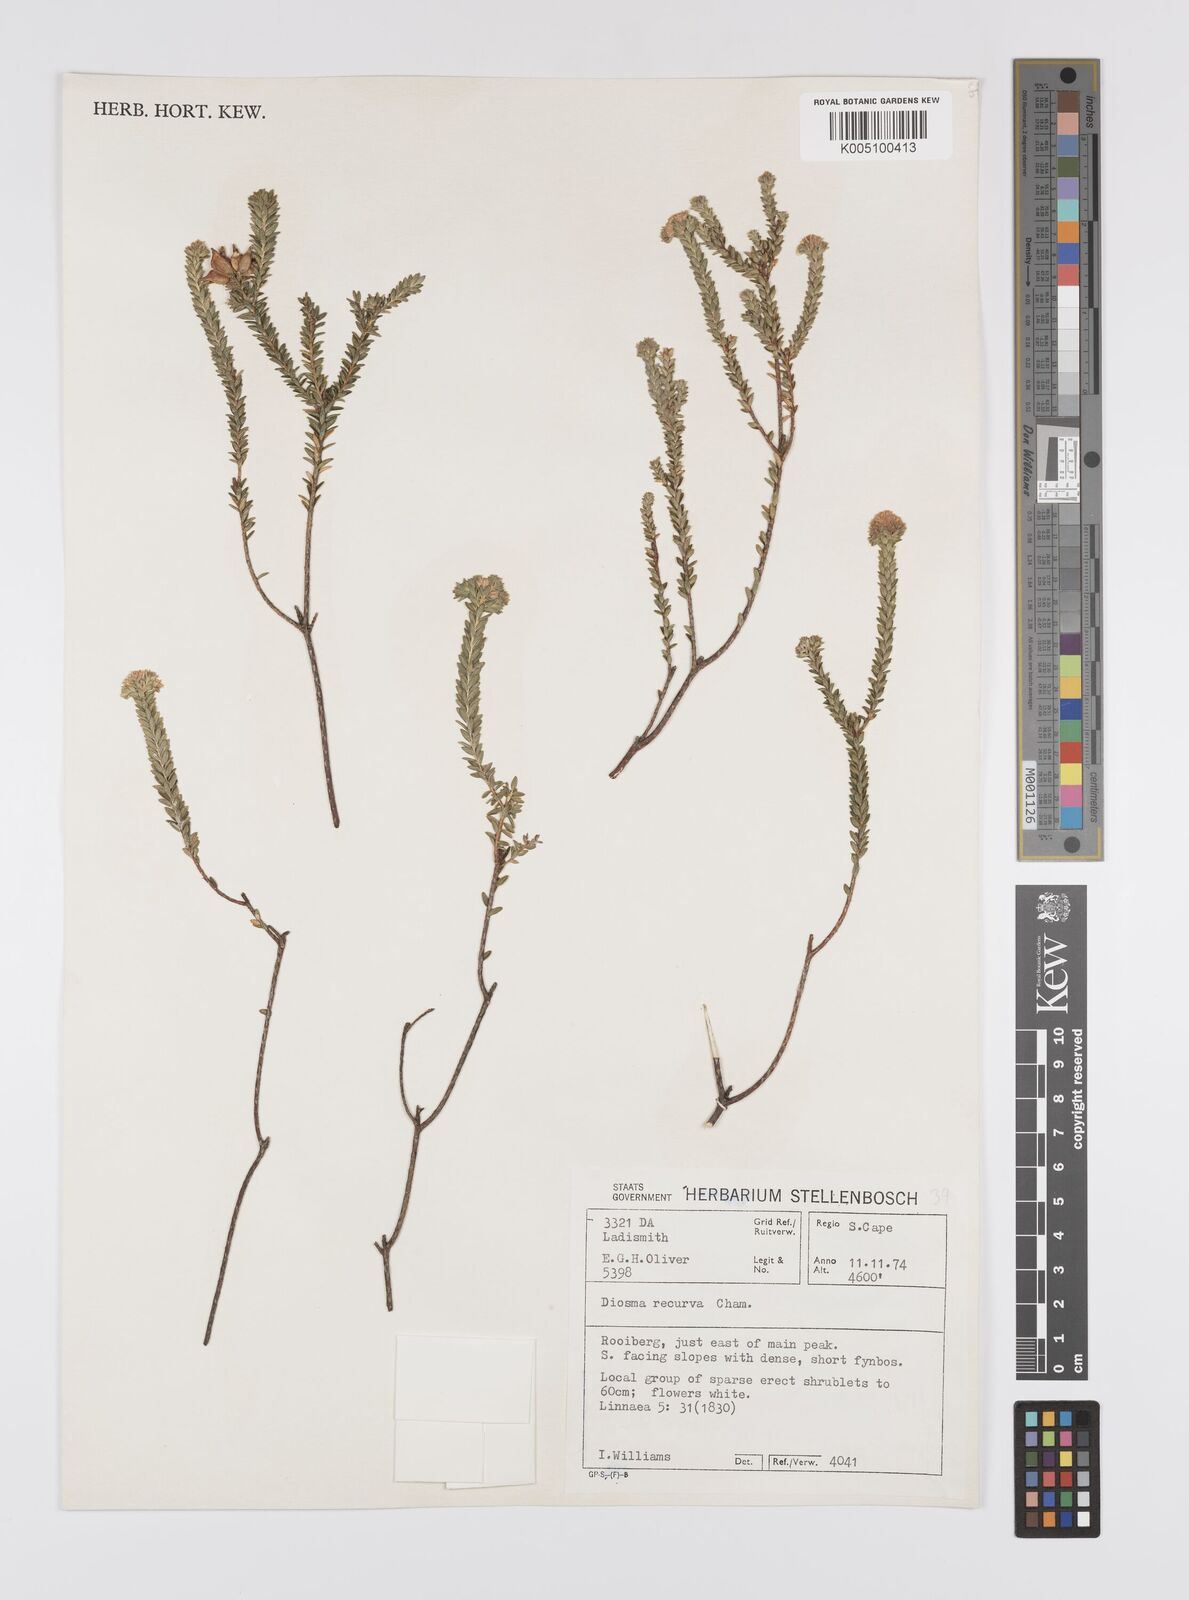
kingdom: Plantae
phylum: Tracheophyta
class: Magnoliopsida
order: Sapindales
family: Rutaceae
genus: Diosma
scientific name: Diosma recurva
